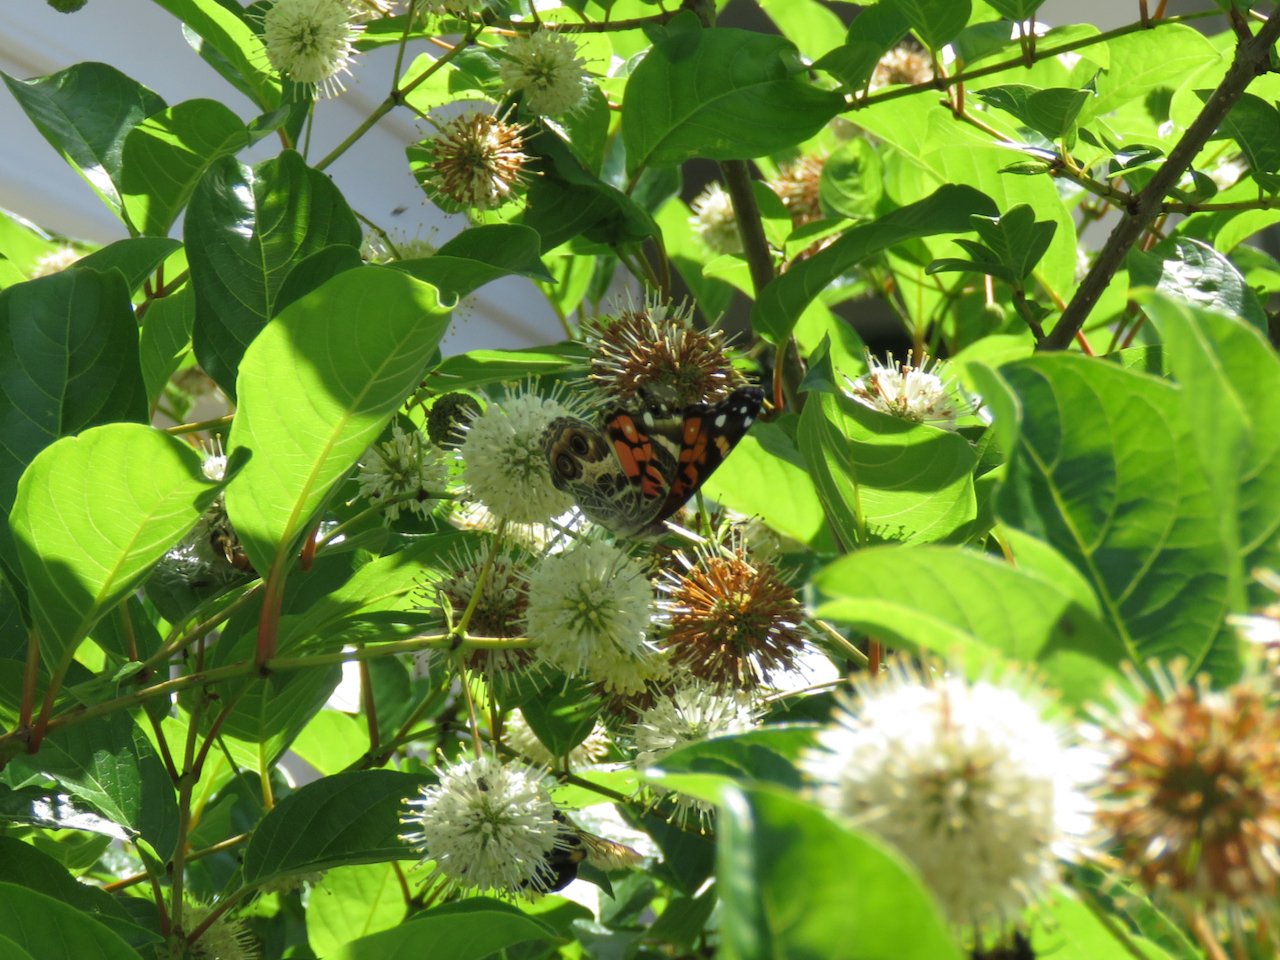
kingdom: Animalia
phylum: Arthropoda
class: Insecta
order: Lepidoptera
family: Nymphalidae
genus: Vanessa
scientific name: Vanessa virginiensis
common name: American Lady
